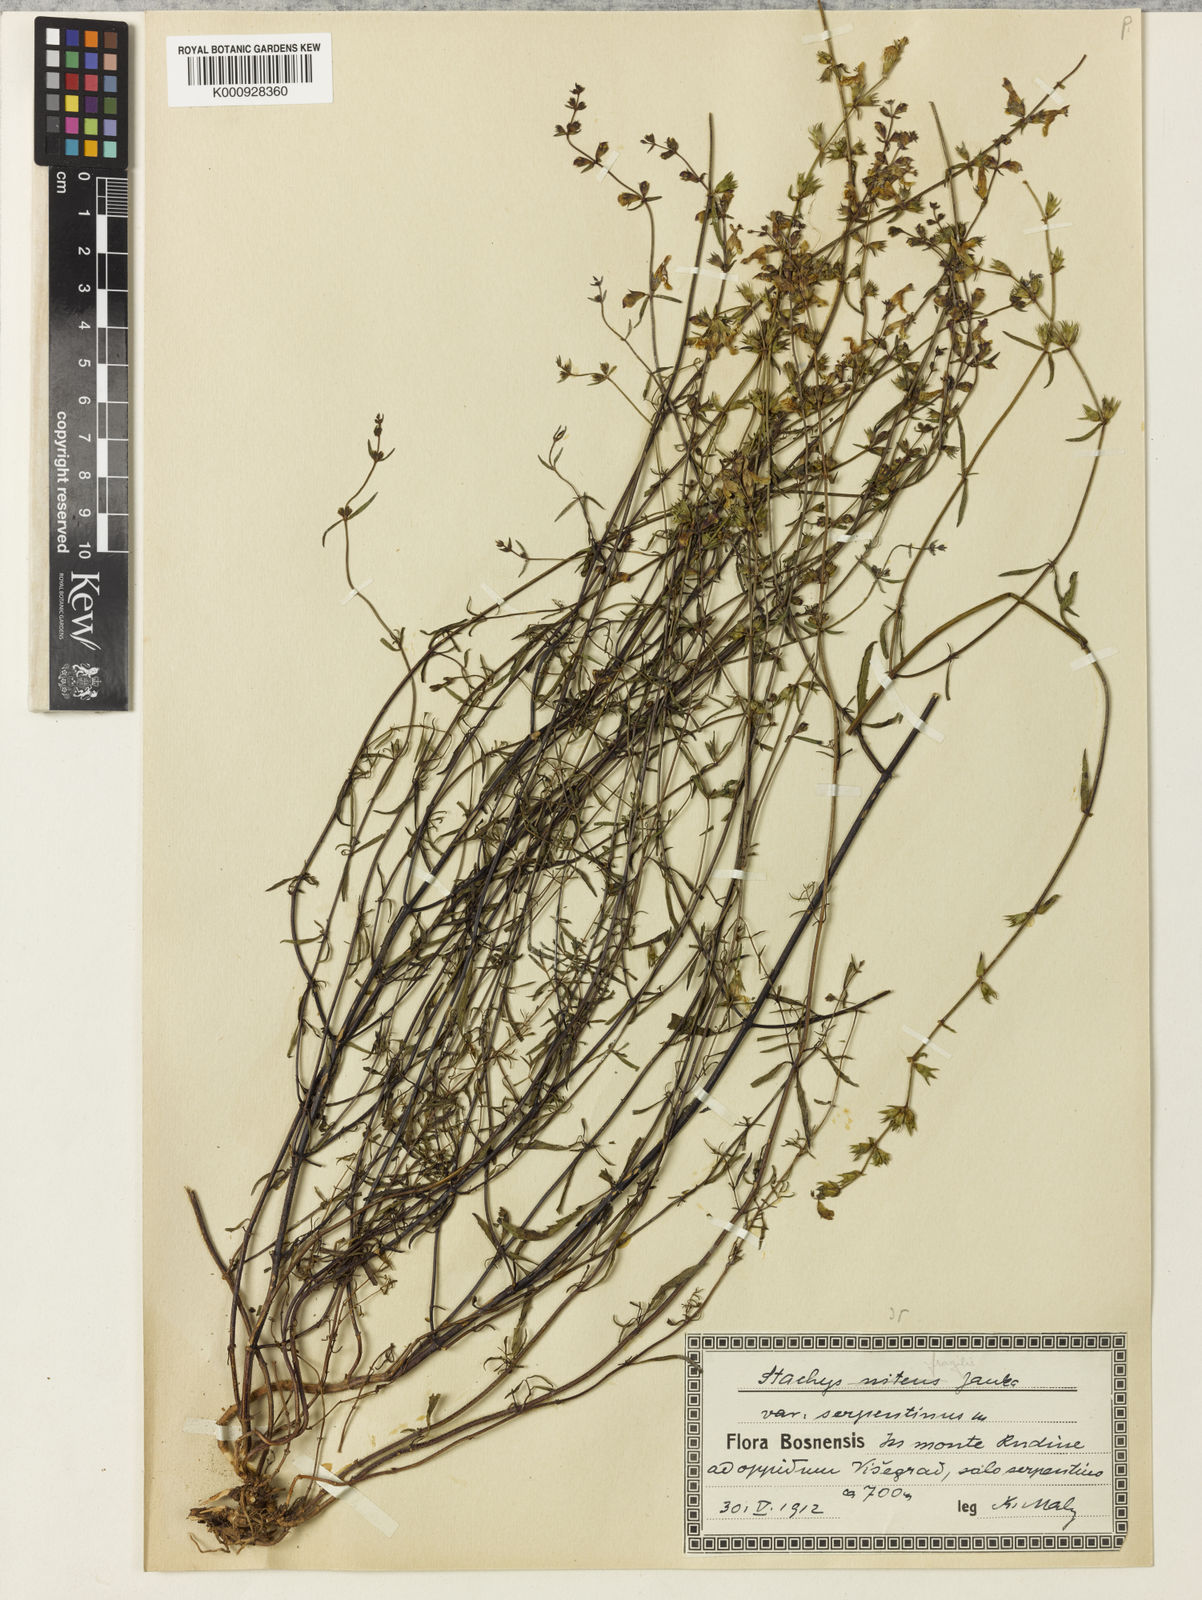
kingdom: Plantae
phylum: Tracheophyta
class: Magnoliopsida
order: Lamiales
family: Lamiaceae
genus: Stachys
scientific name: Stachys recta
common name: Perennial yellow-woundwort
